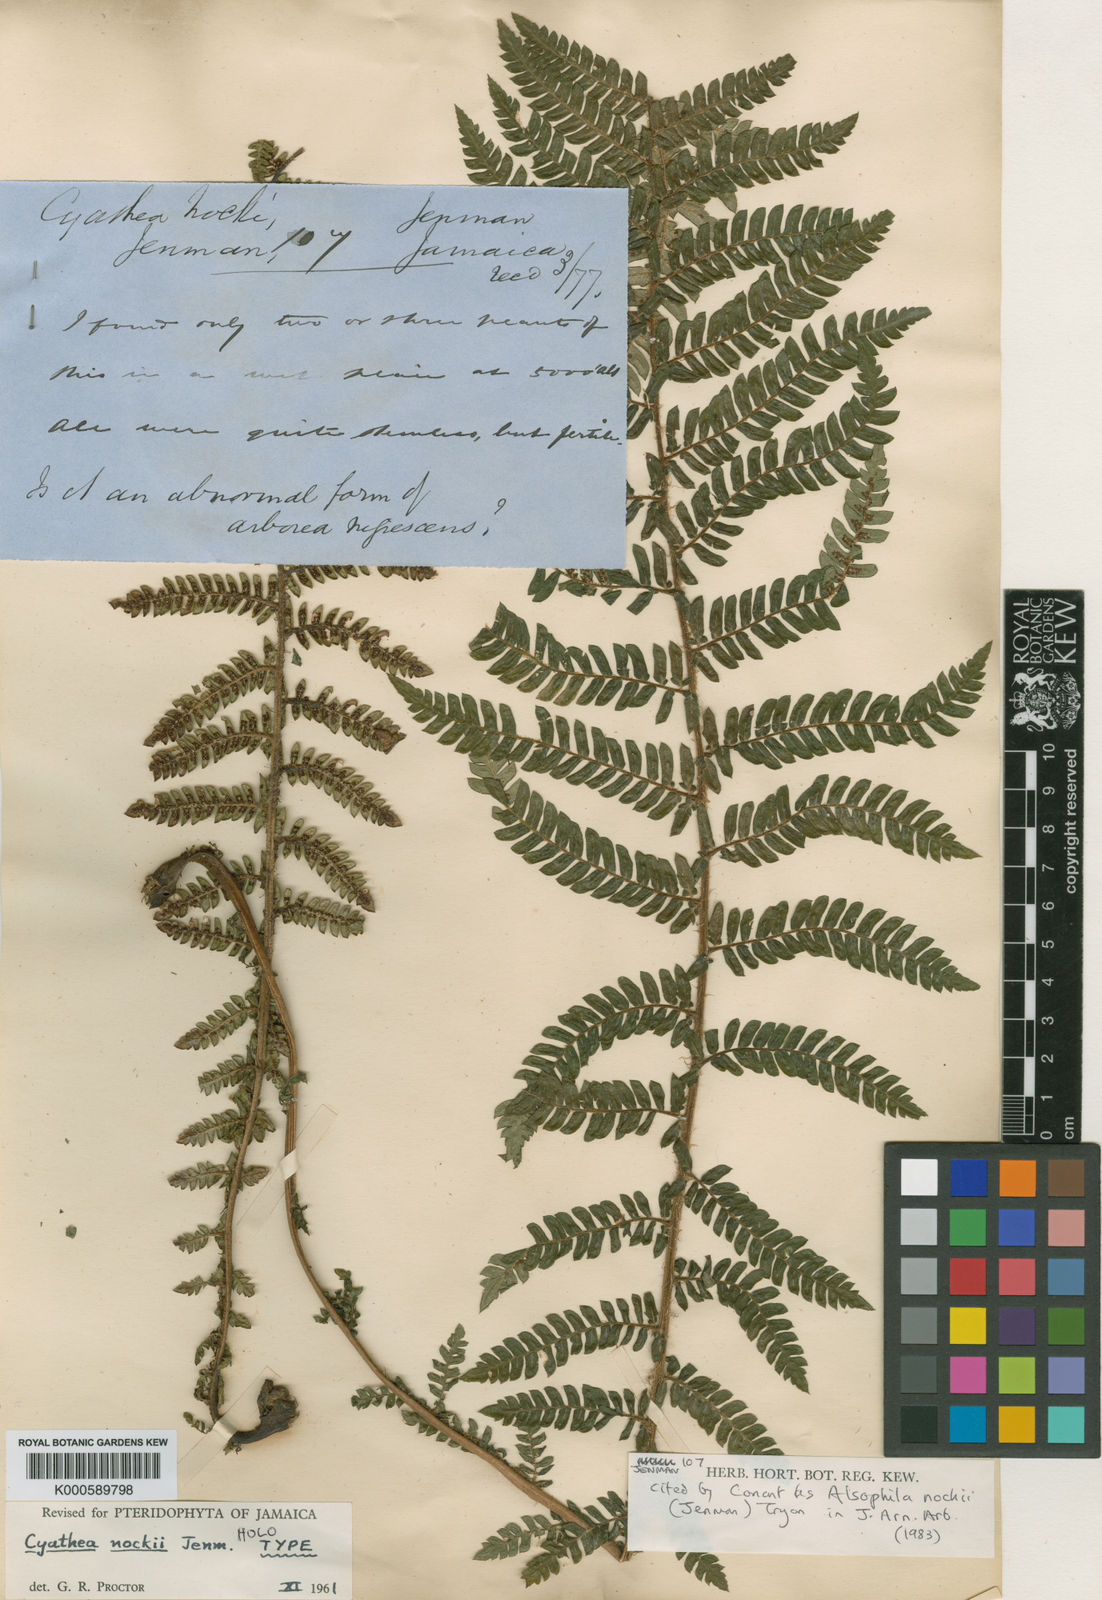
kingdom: Plantae
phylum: Tracheophyta
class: Polypodiopsida
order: Cyatheales
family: Cyatheaceae
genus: Alsophila
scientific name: Alsophila nockii
